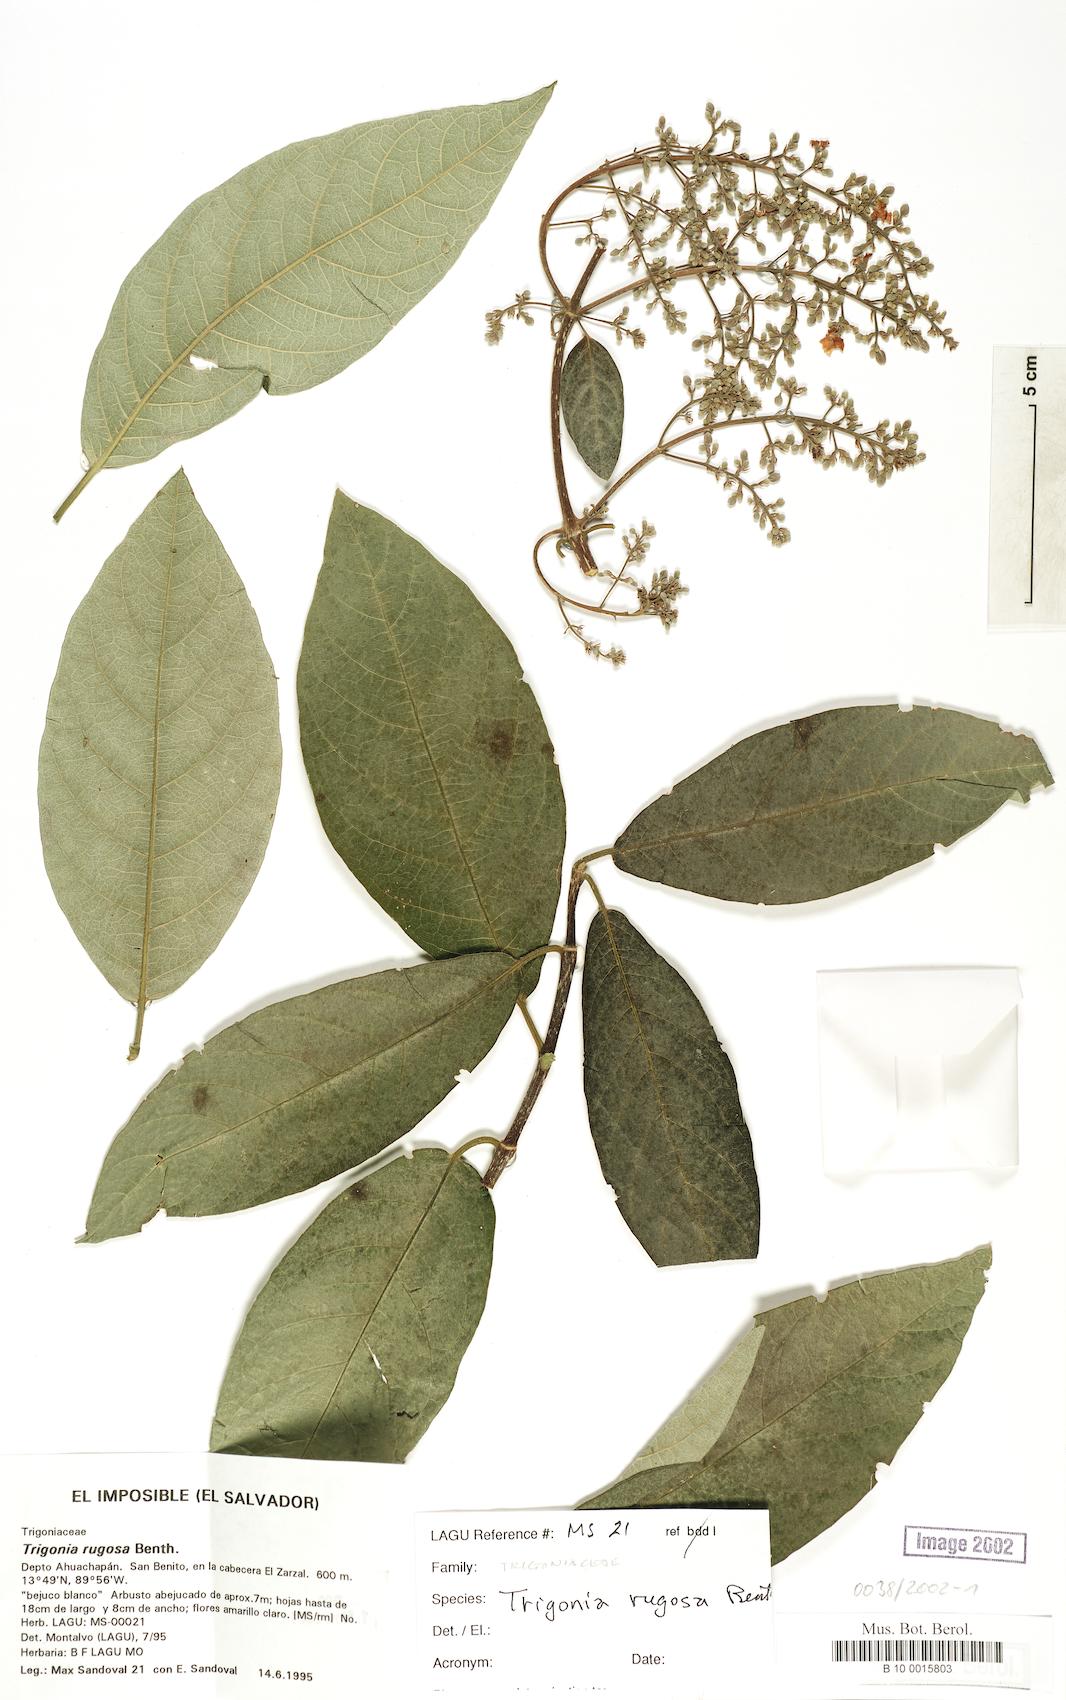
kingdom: Plantae
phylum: Tracheophyta
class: Magnoliopsida
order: Malpighiales
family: Trigoniaceae
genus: Trigonia
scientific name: Trigonia rugosa
